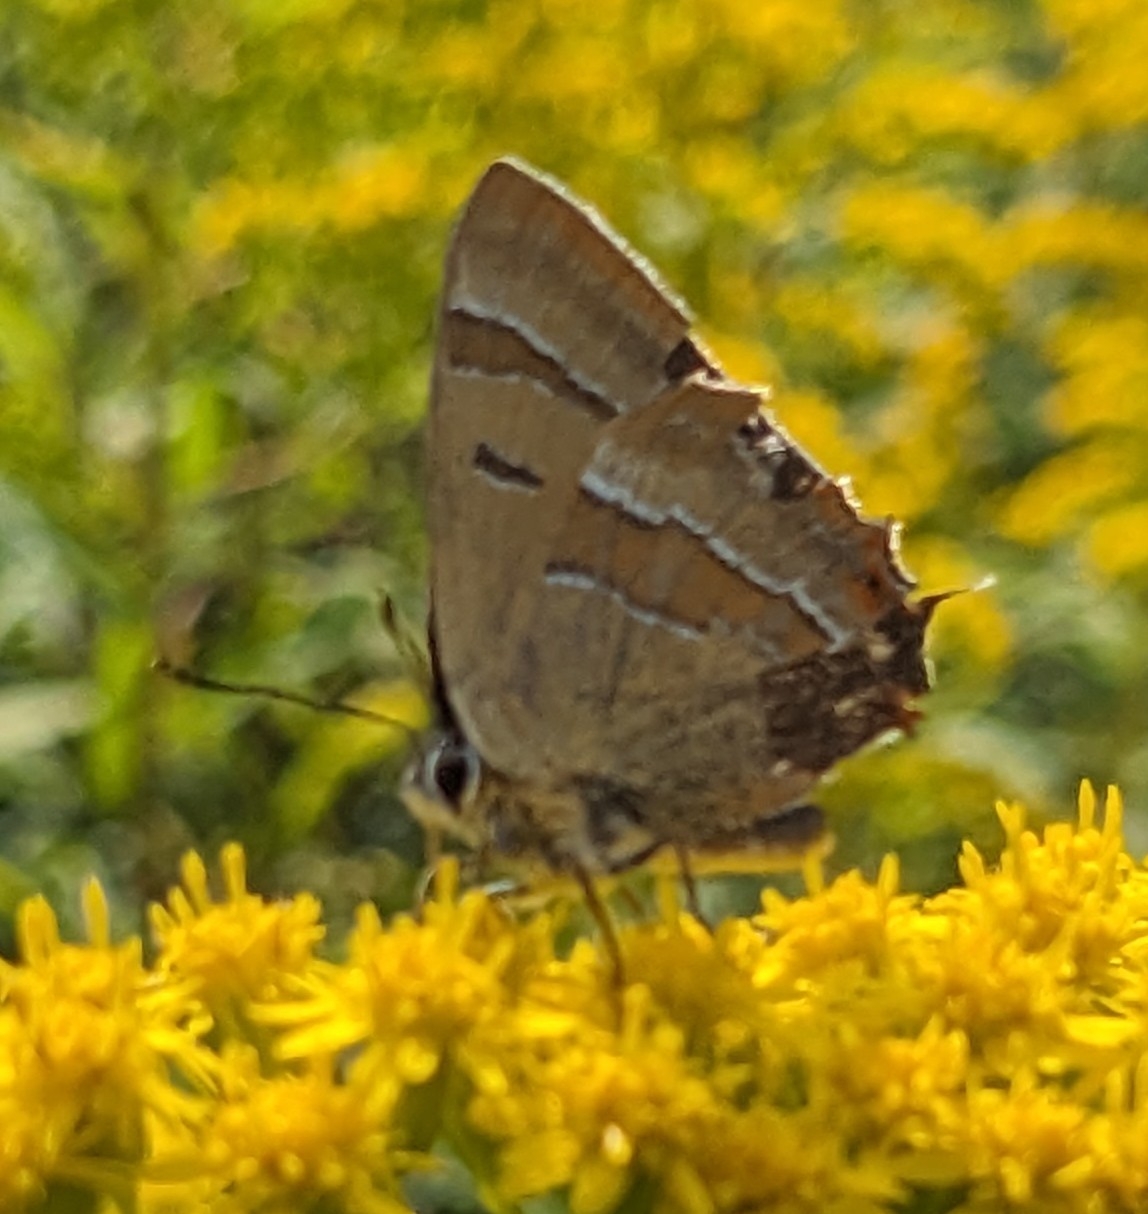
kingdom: Animalia
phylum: Arthropoda
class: Insecta
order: Lepidoptera
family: Lycaenidae
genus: Thecla
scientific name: Thecla betulae
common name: Guldhale
